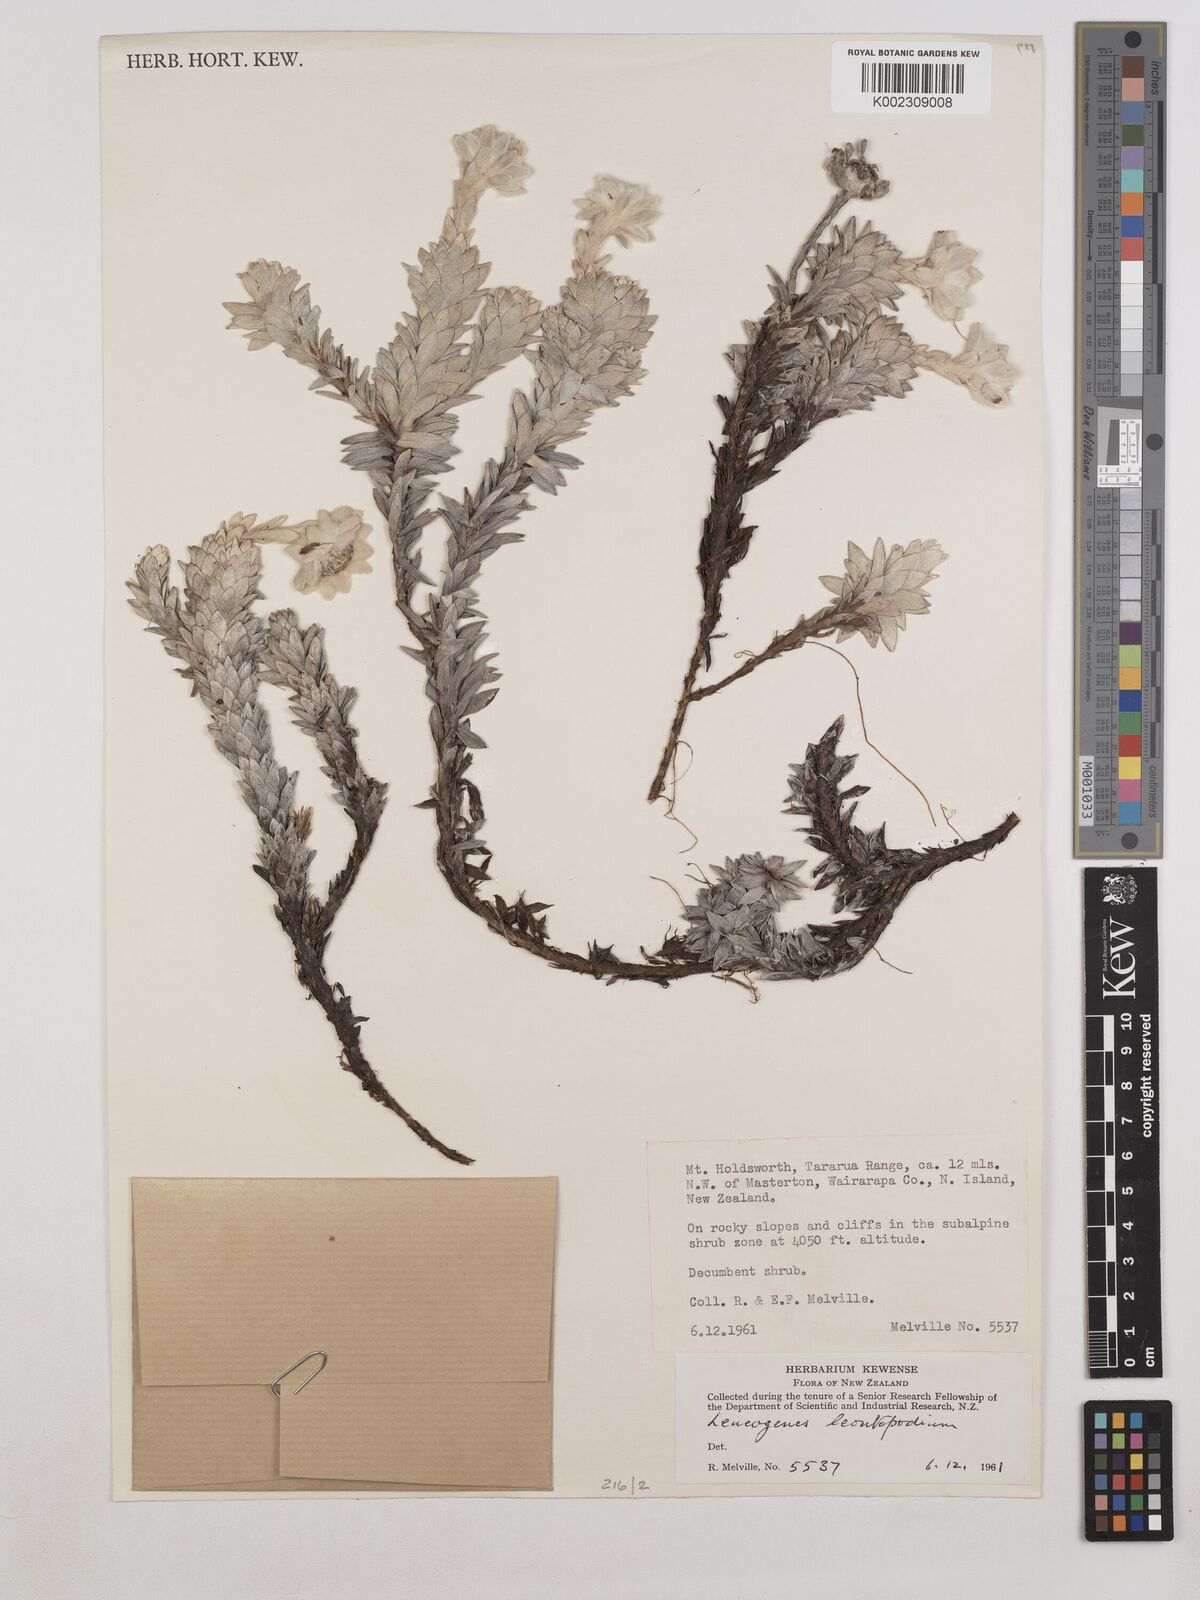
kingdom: Plantae
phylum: Tracheophyta
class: Magnoliopsida
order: Asterales
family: Asteraceae
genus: Leucogenes
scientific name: Leucogenes leontopodium
